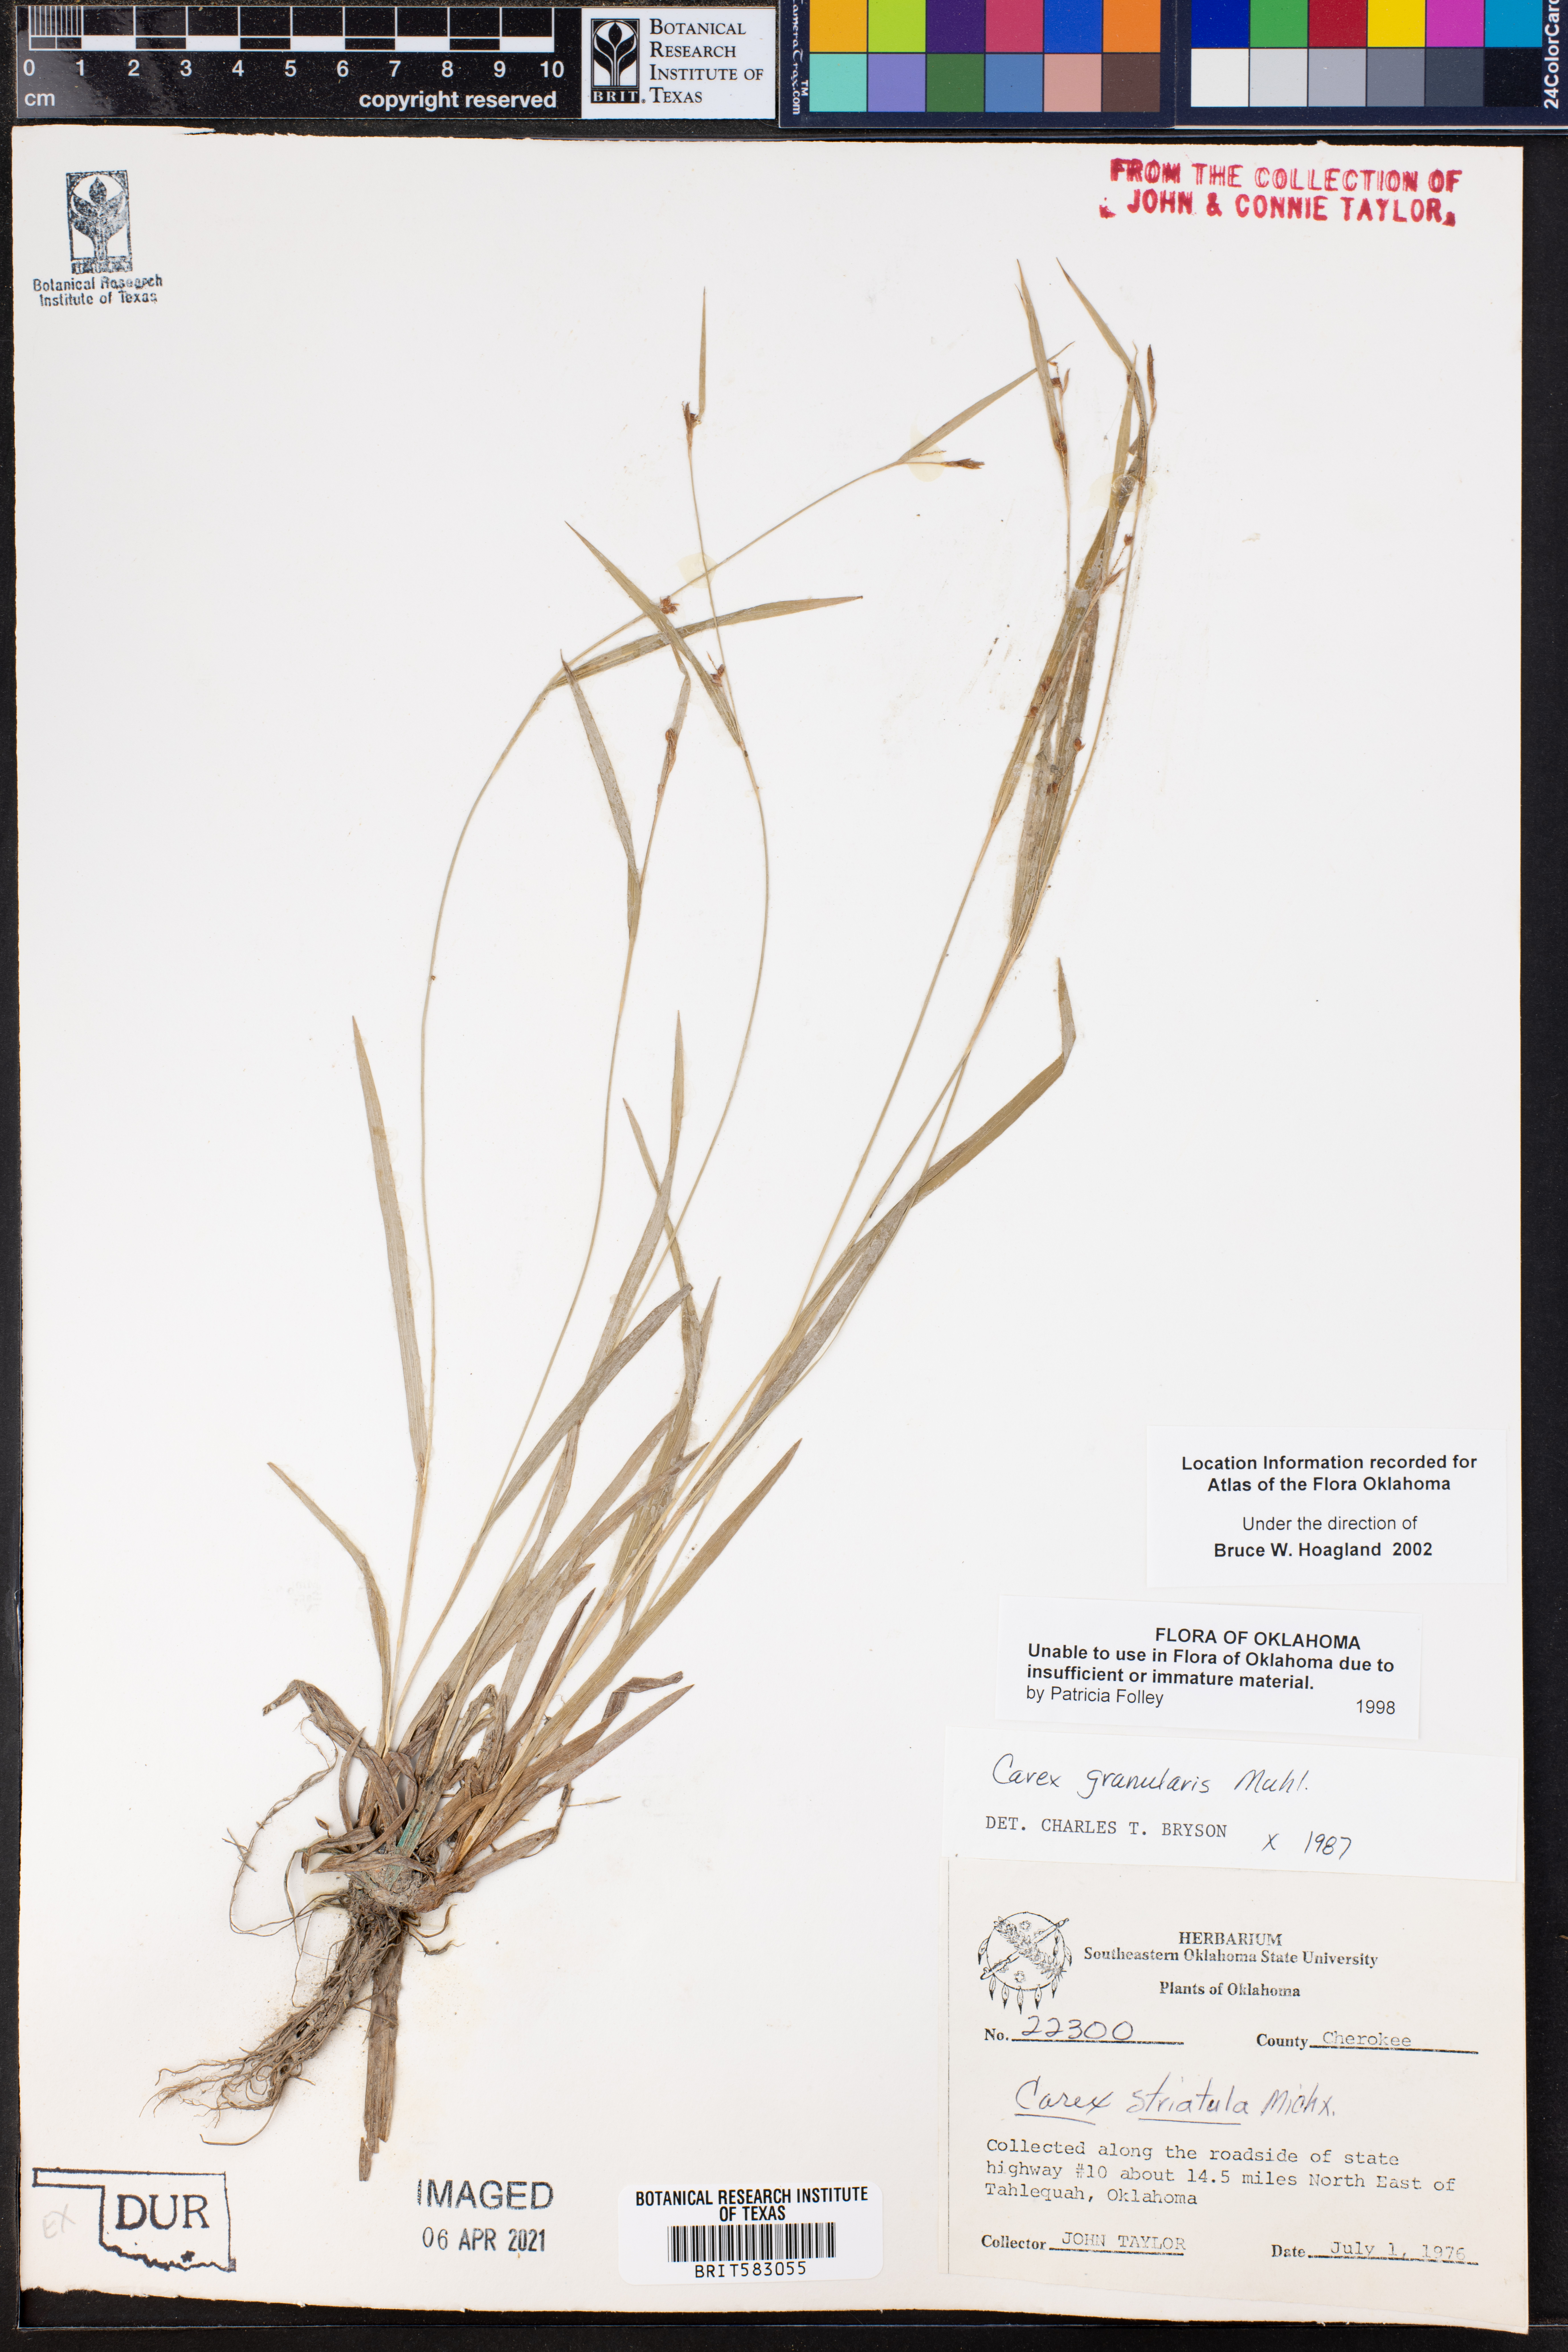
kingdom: Plantae
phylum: Tracheophyta
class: Liliopsida
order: Poales
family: Cyperaceae
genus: Carex
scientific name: Carex granularis
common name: Granular sedge
